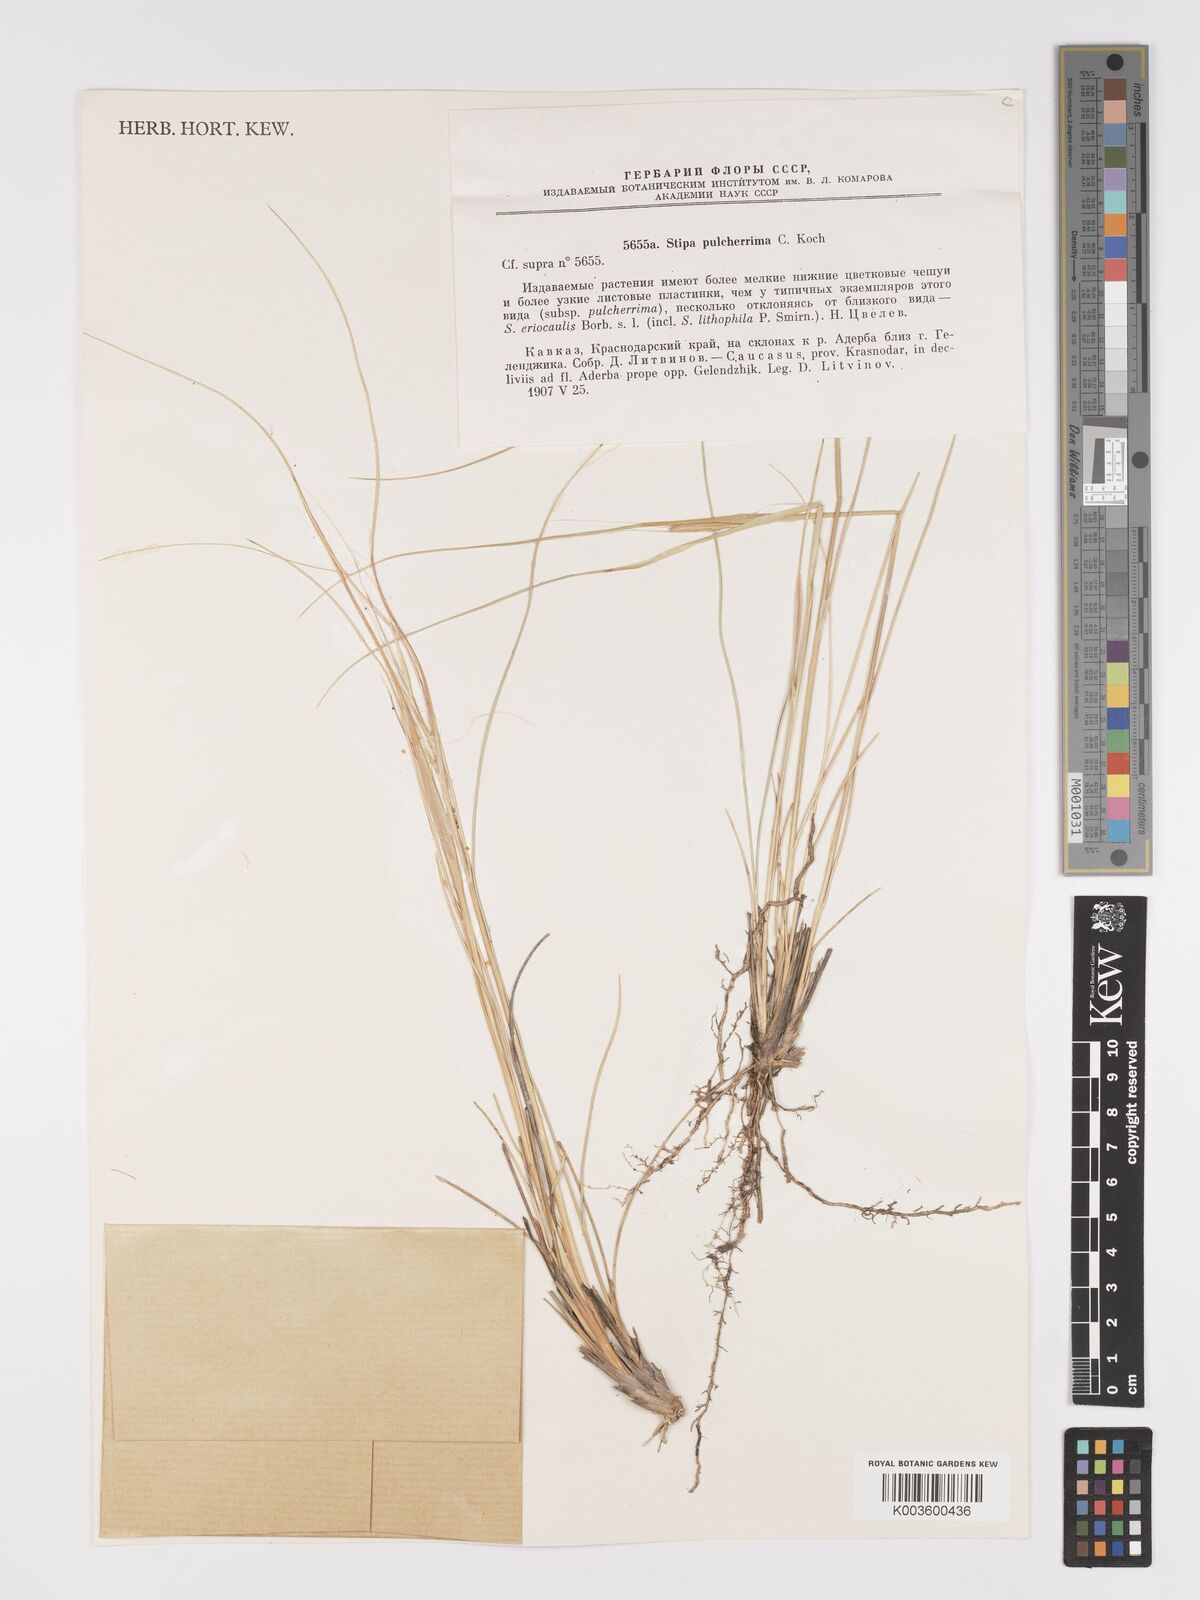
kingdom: Plantae
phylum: Tracheophyta
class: Liliopsida
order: Poales
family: Poaceae
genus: Stipa
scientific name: Stipa pulcherrima
